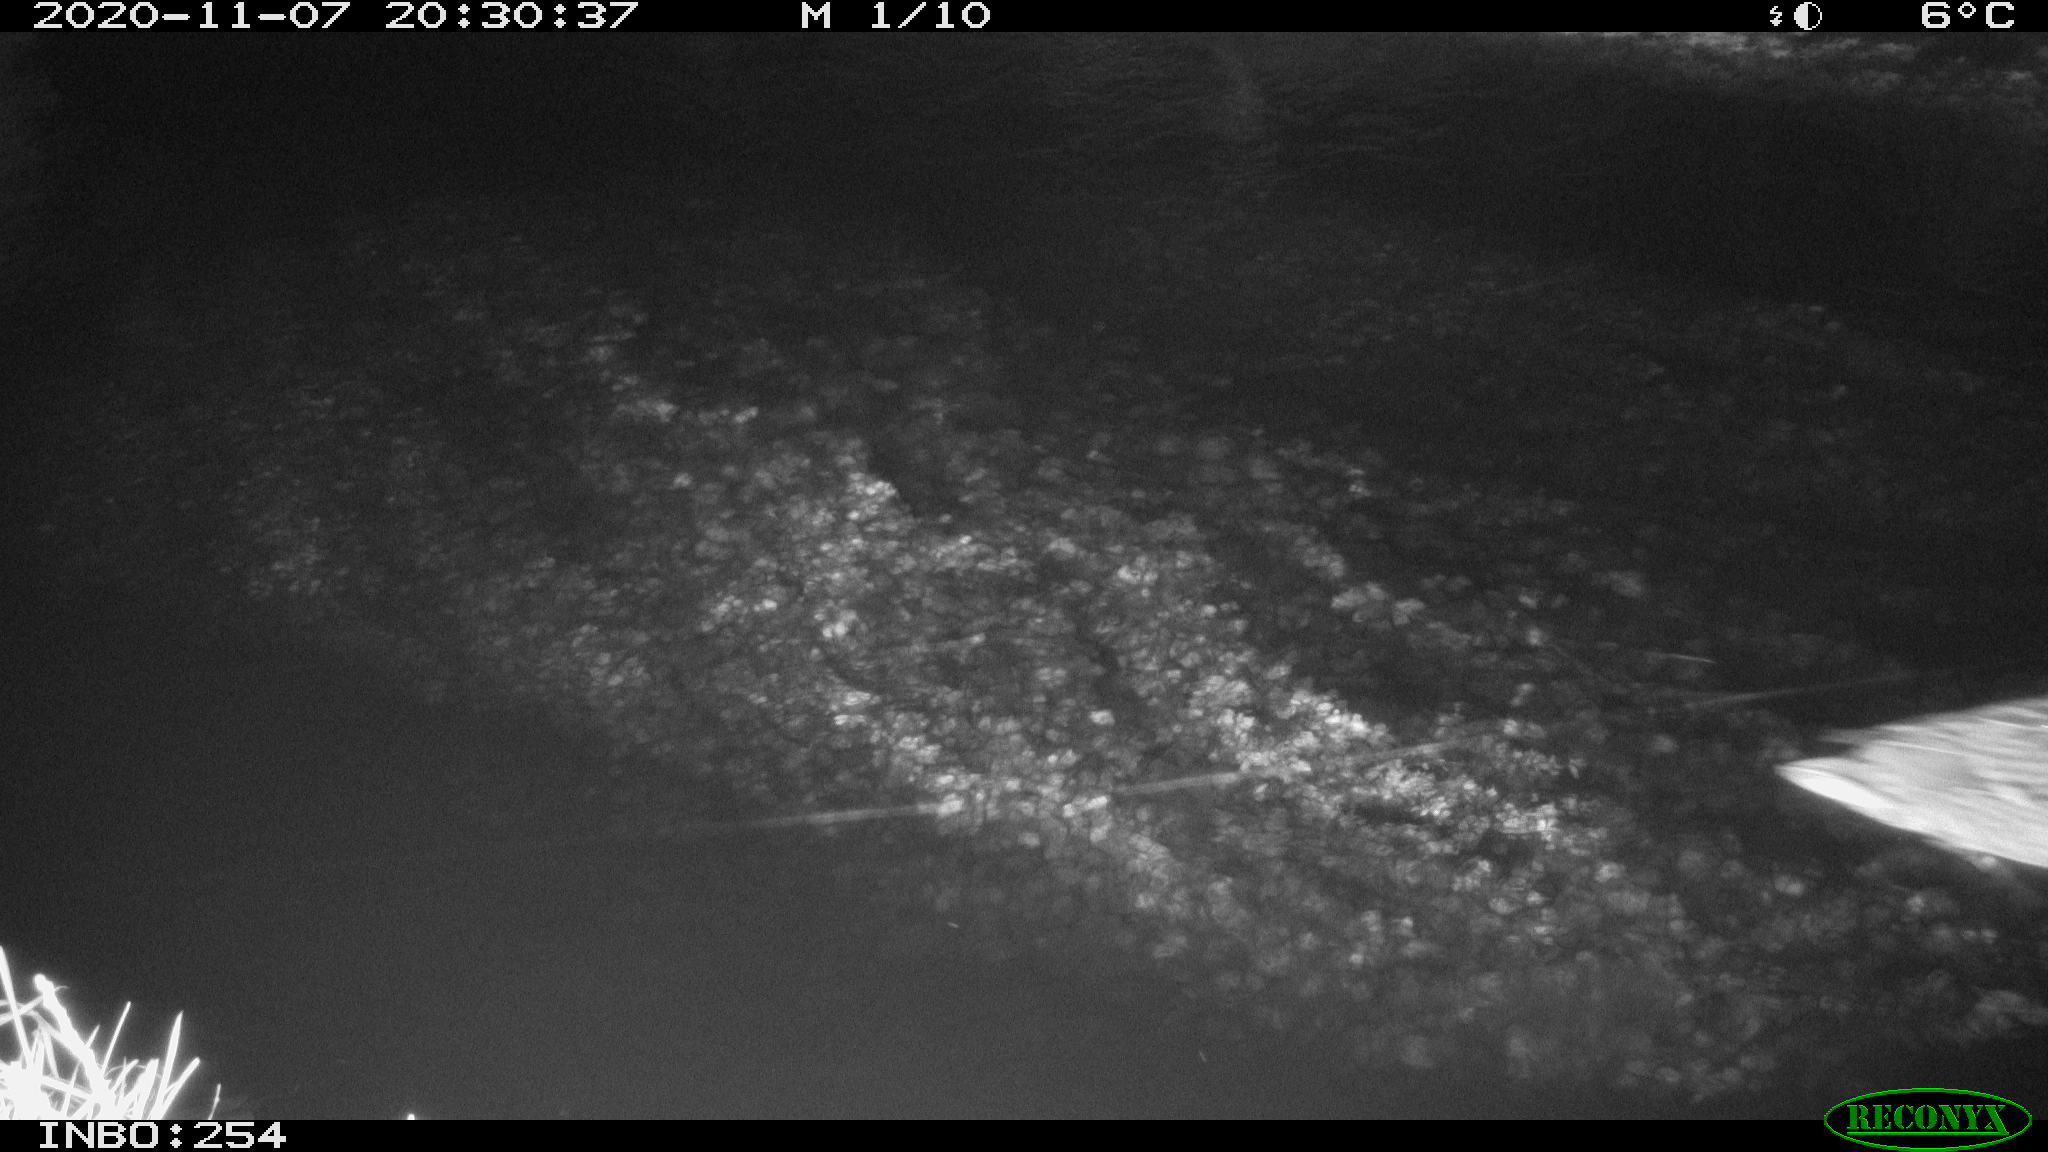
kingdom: Animalia
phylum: Chordata
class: Aves
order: Anseriformes
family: Anatidae
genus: Anas
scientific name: Anas platyrhynchos
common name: Mallard
